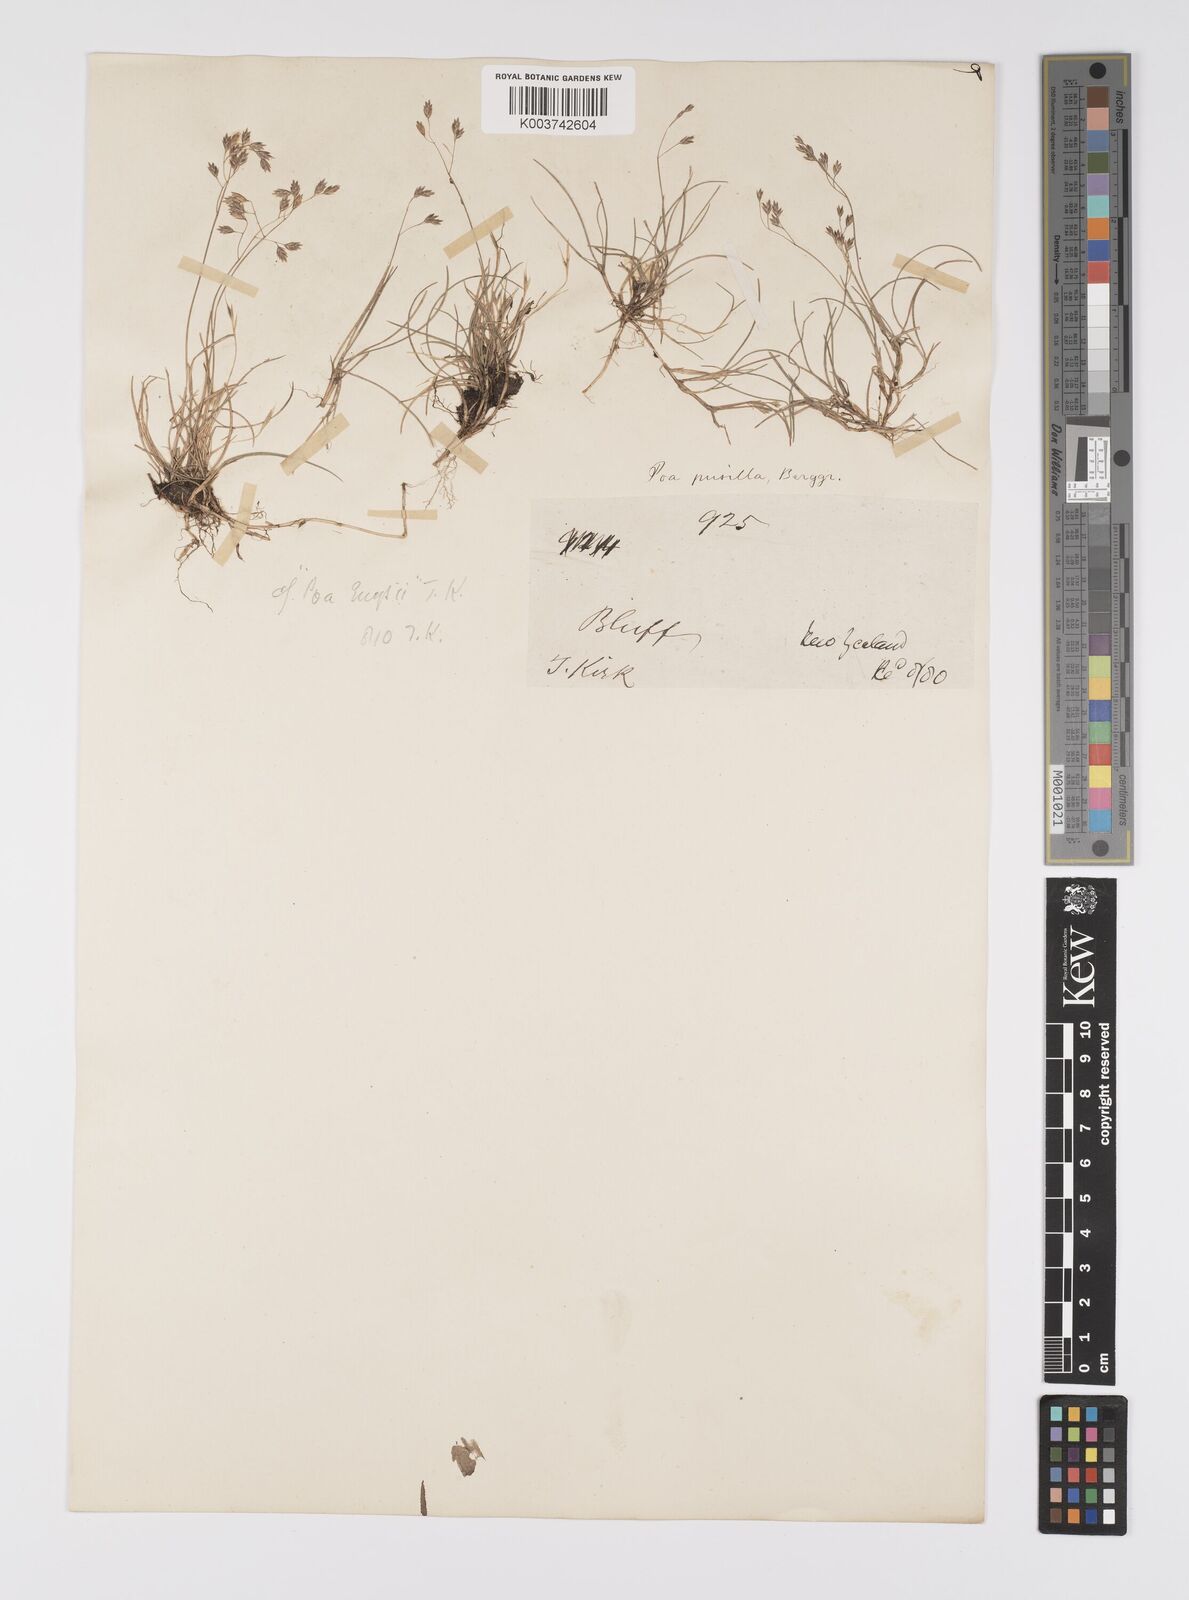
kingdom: Plantae
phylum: Tracheophyta
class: Liliopsida
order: Poales
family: Poaceae
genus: Poa
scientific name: Poa anceps
